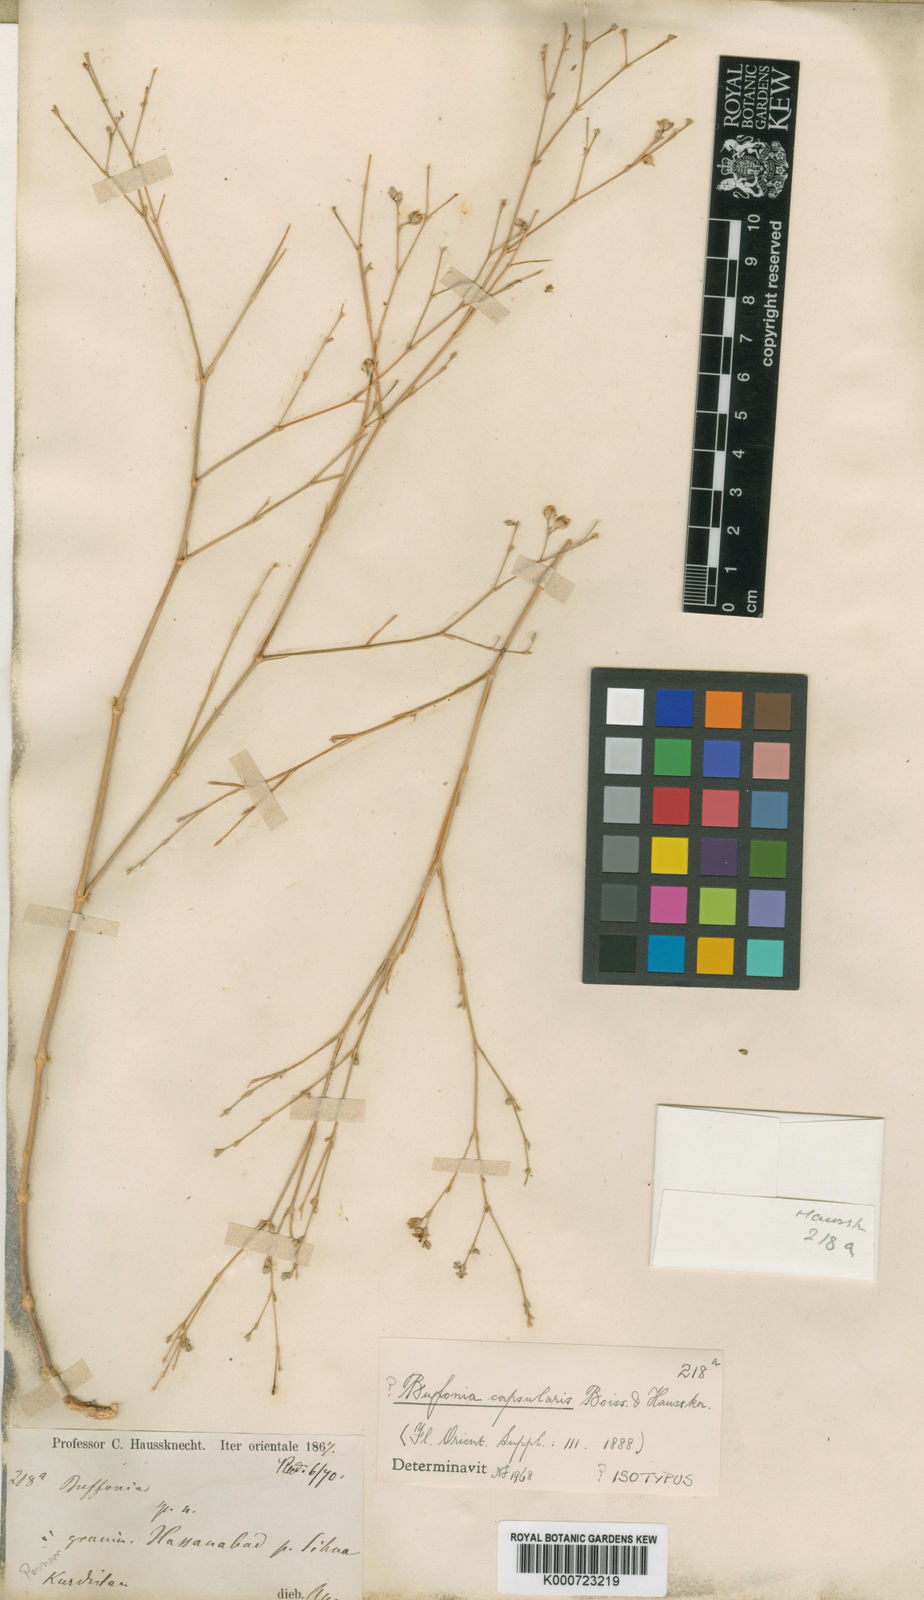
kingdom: Plantae
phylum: Tracheophyta
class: Magnoliopsida
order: Caryophyllales
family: Caryophyllaceae
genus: Bufonia
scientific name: Bufonia capsularis
